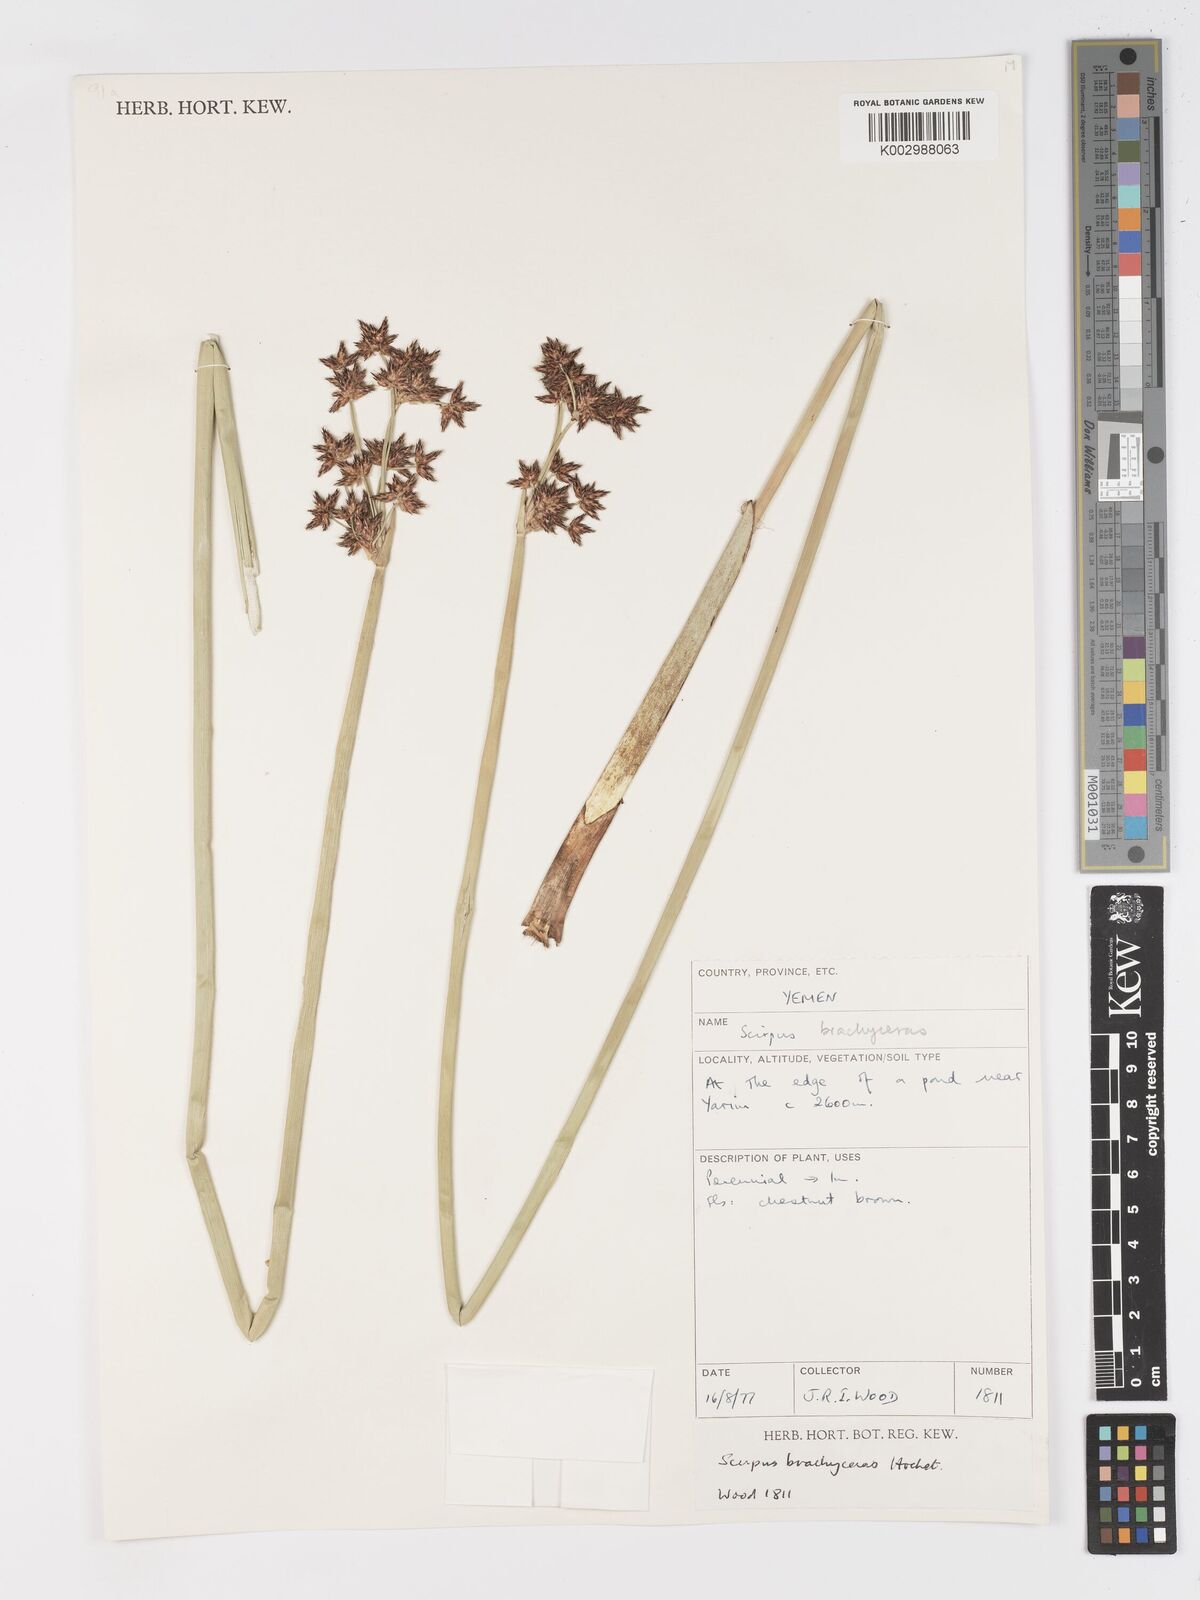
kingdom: Plantae
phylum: Tracheophyta
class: Liliopsida
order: Poales
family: Cyperaceae
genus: Schoenoplectiella
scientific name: Schoenoplectiella brachyceras
